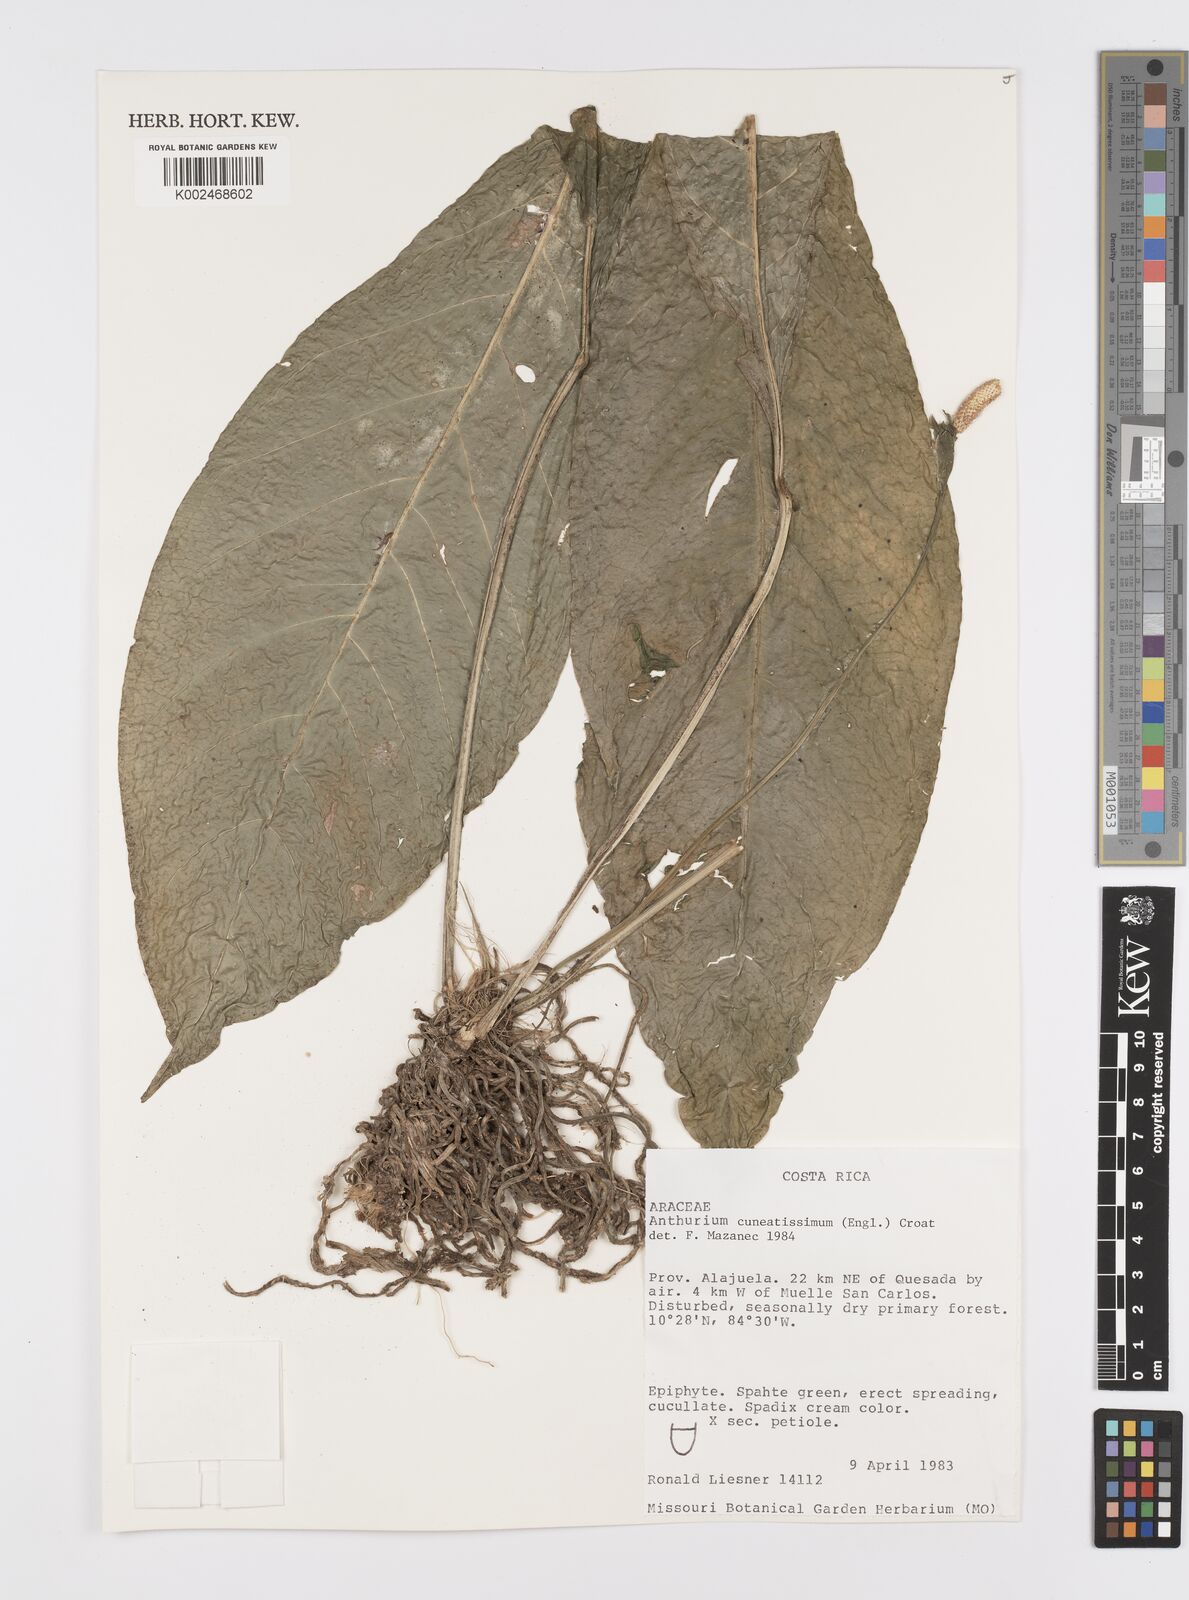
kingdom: Plantae
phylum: Tracheophyta
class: Liliopsida
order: Alismatales
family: Araceae
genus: Anthurium
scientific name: Anthurium consobrinum
